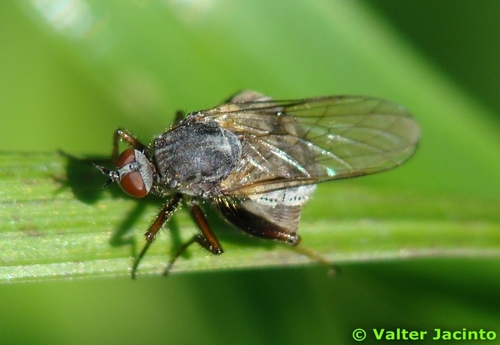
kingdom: Animalia
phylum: Arthropoda
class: Insecta
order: Diptera
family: Empididae
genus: Empis
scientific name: Empis femorata
